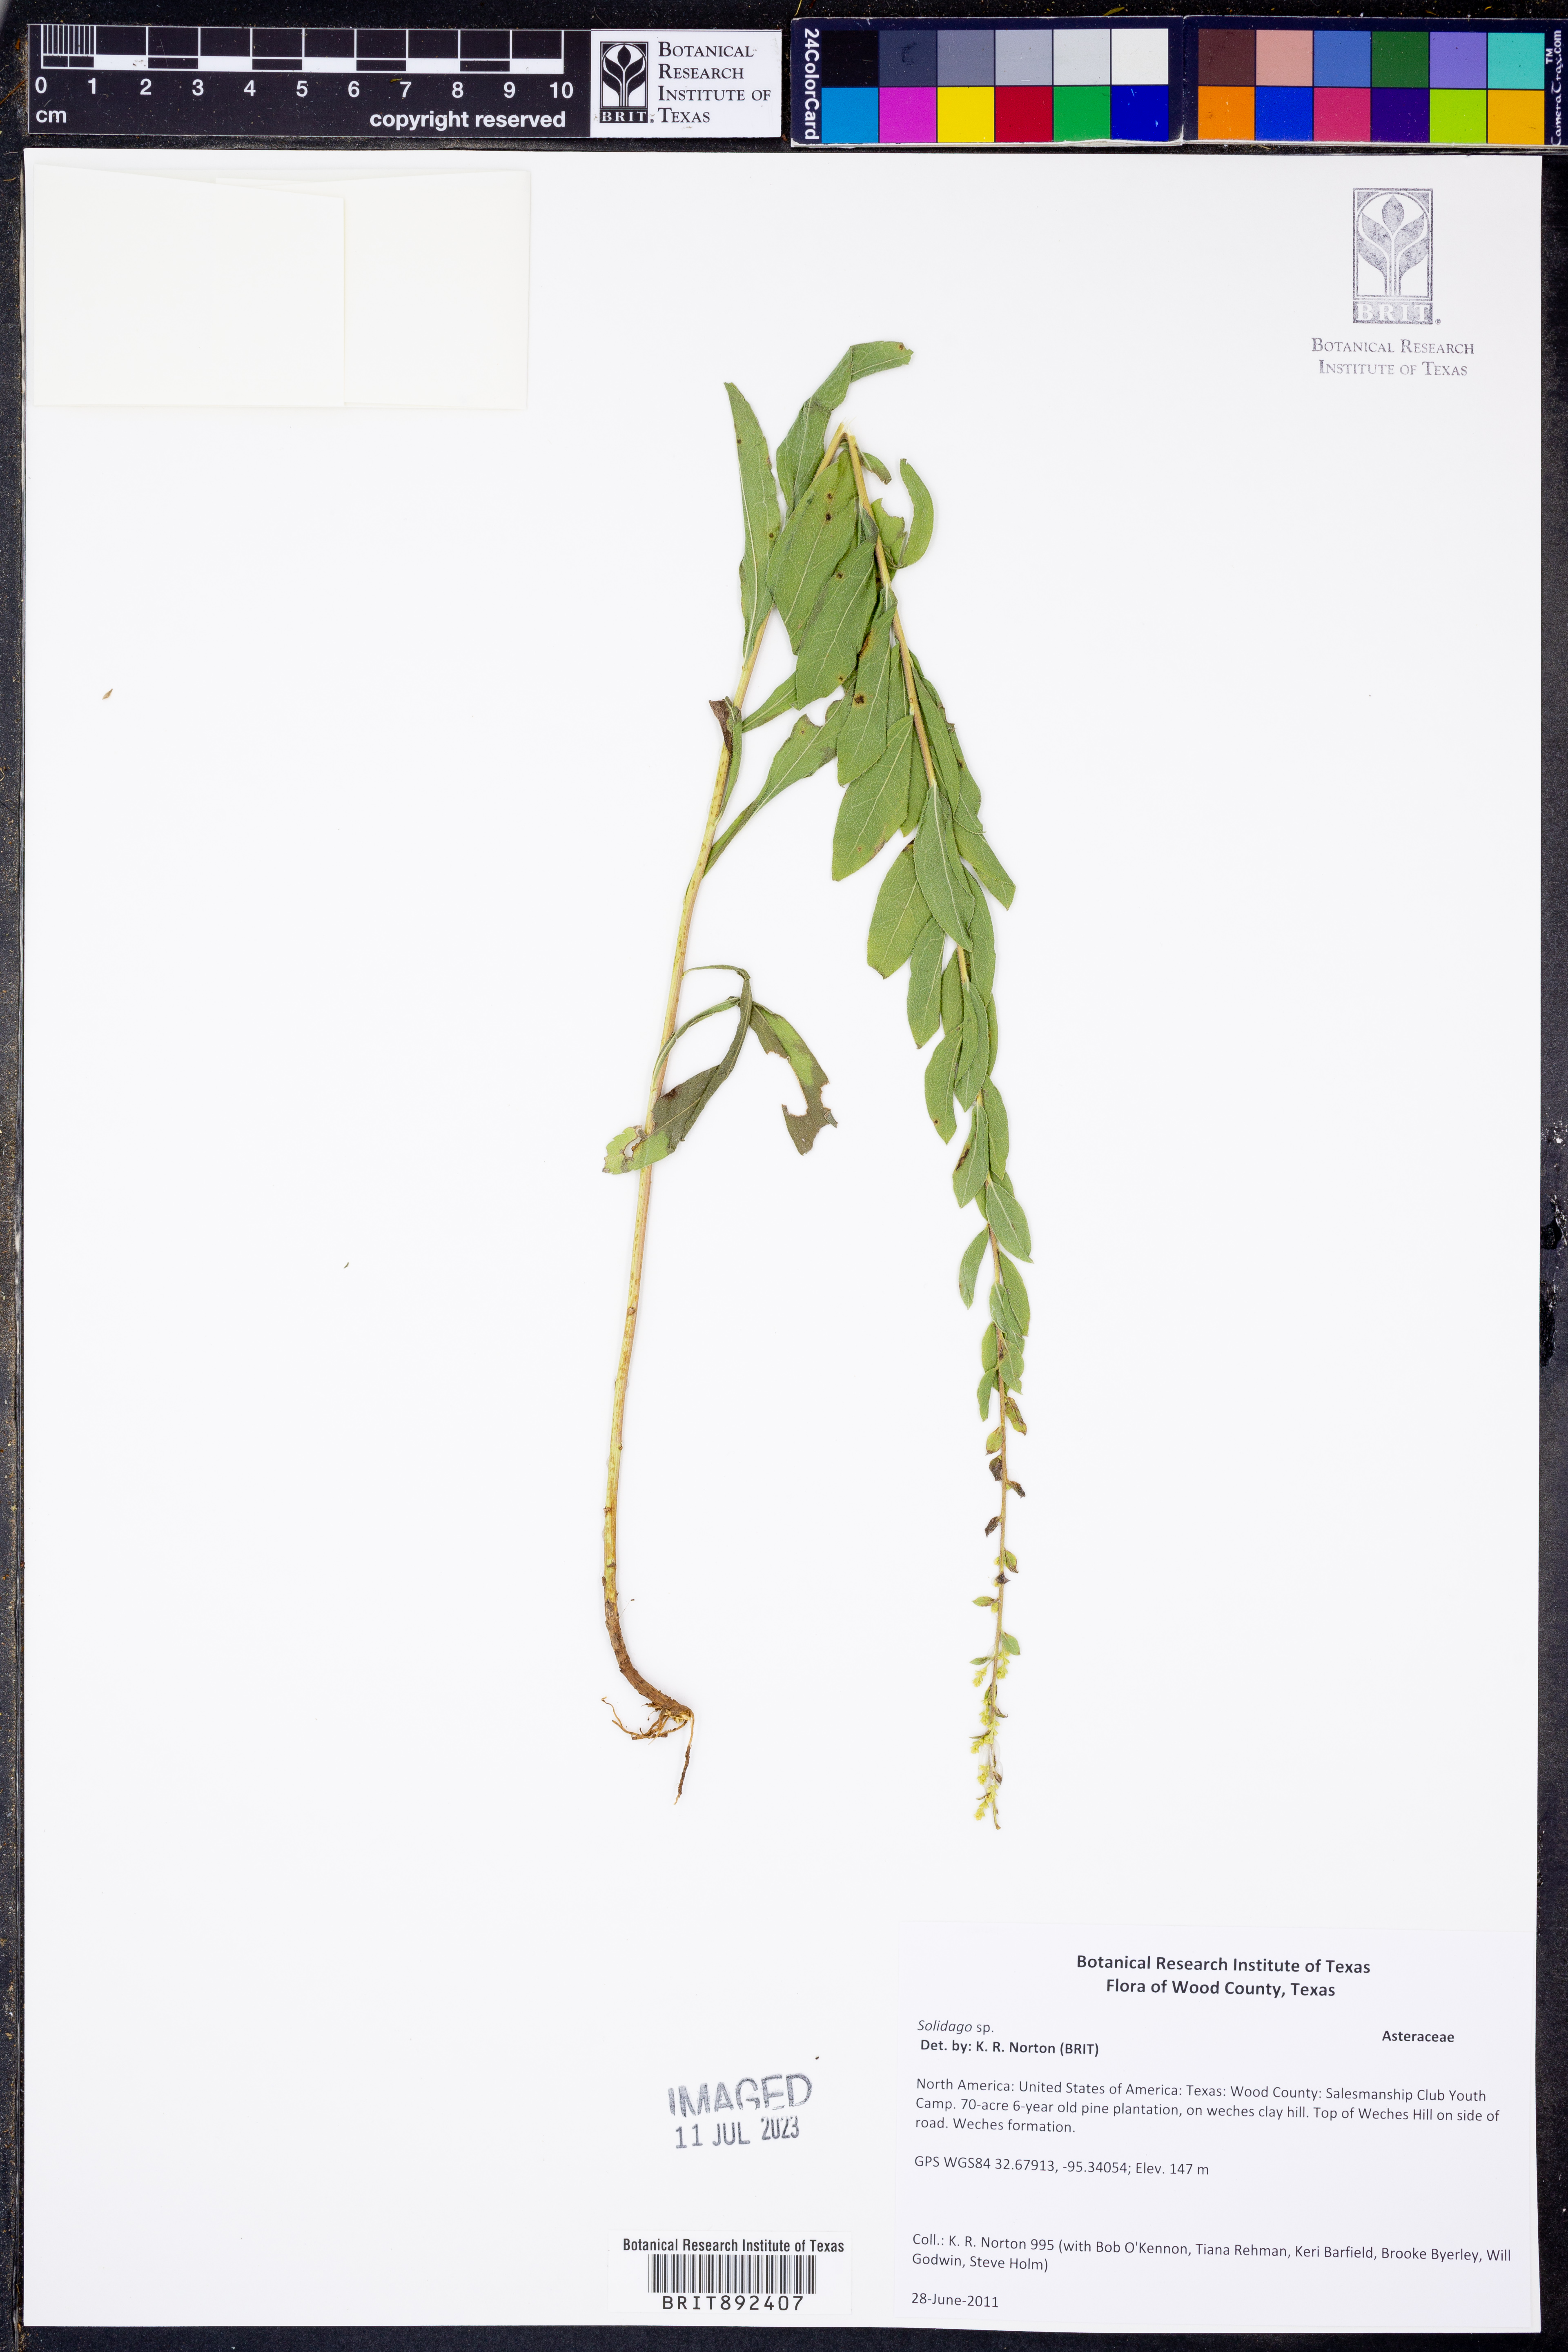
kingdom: Plantae
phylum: Tracheophyta
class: Magnoliopsida
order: Asterales
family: Asteraceae
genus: Solidago
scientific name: Solidago
